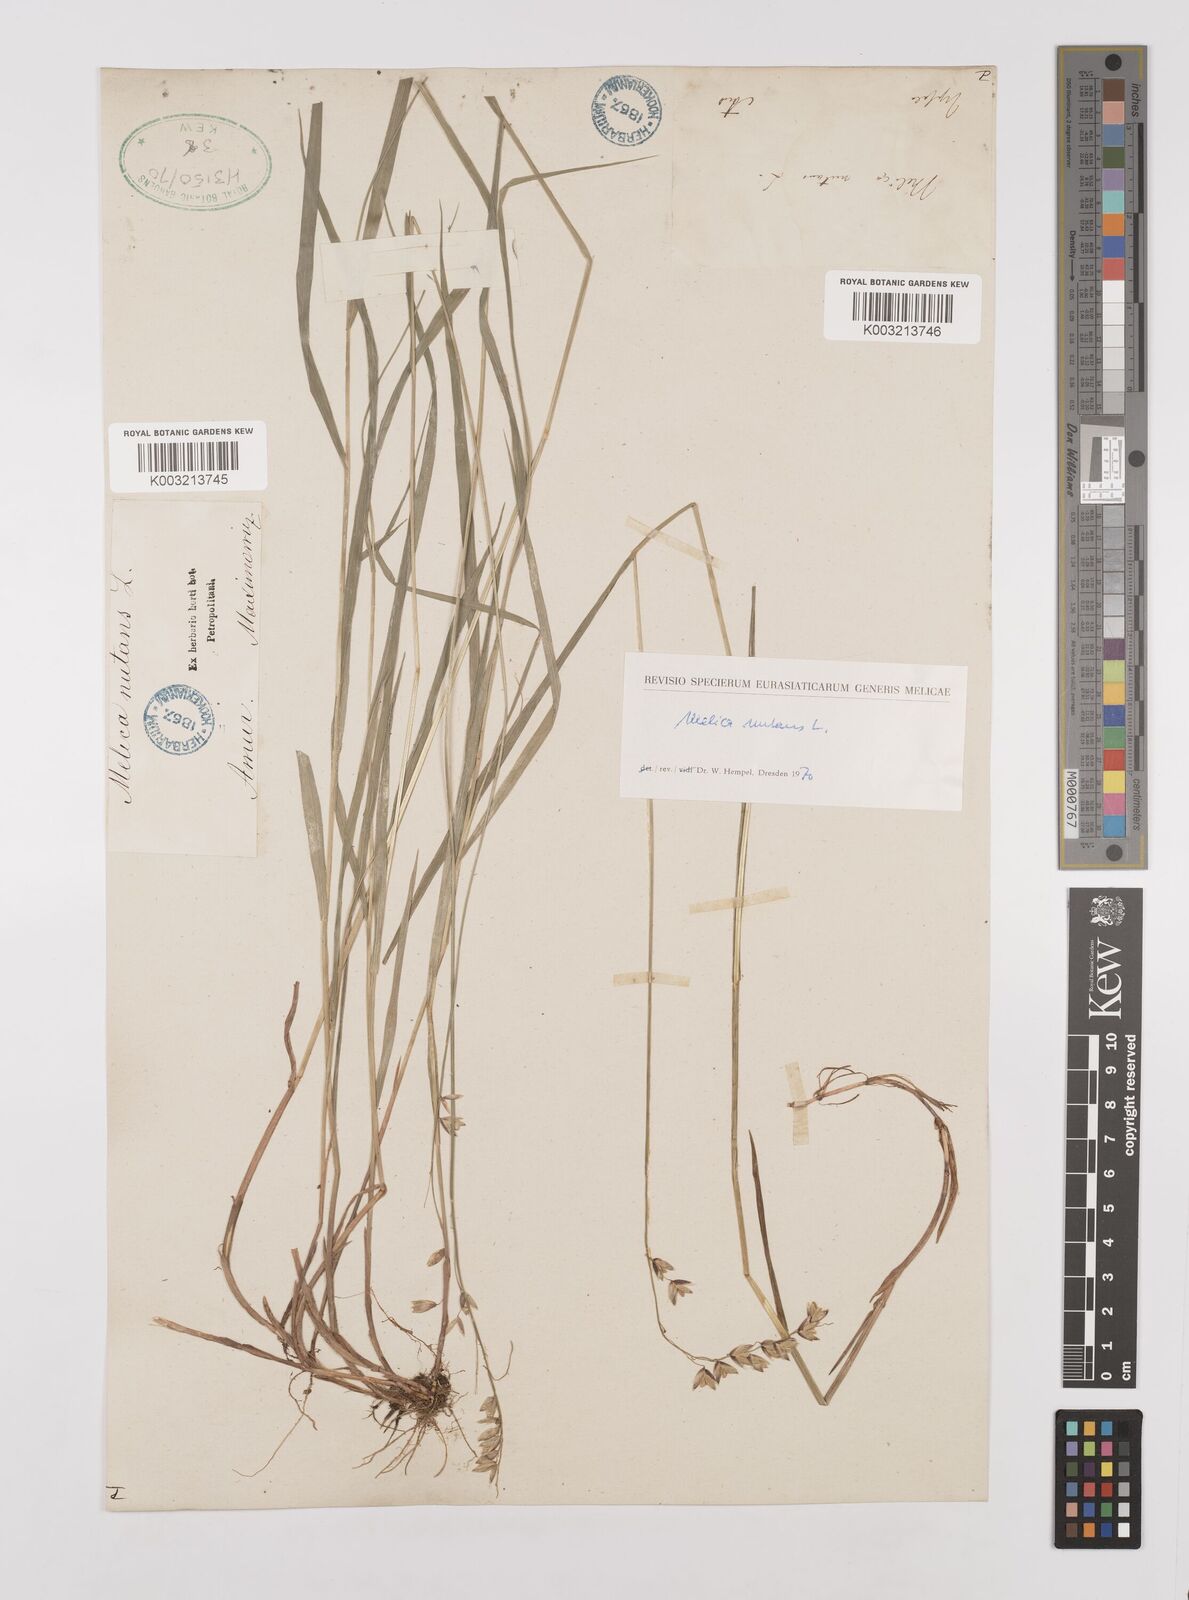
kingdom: Plantae
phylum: Tracheophyta
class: Liliopsida
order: Poales
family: Poaceae
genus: Melica
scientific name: Melica
